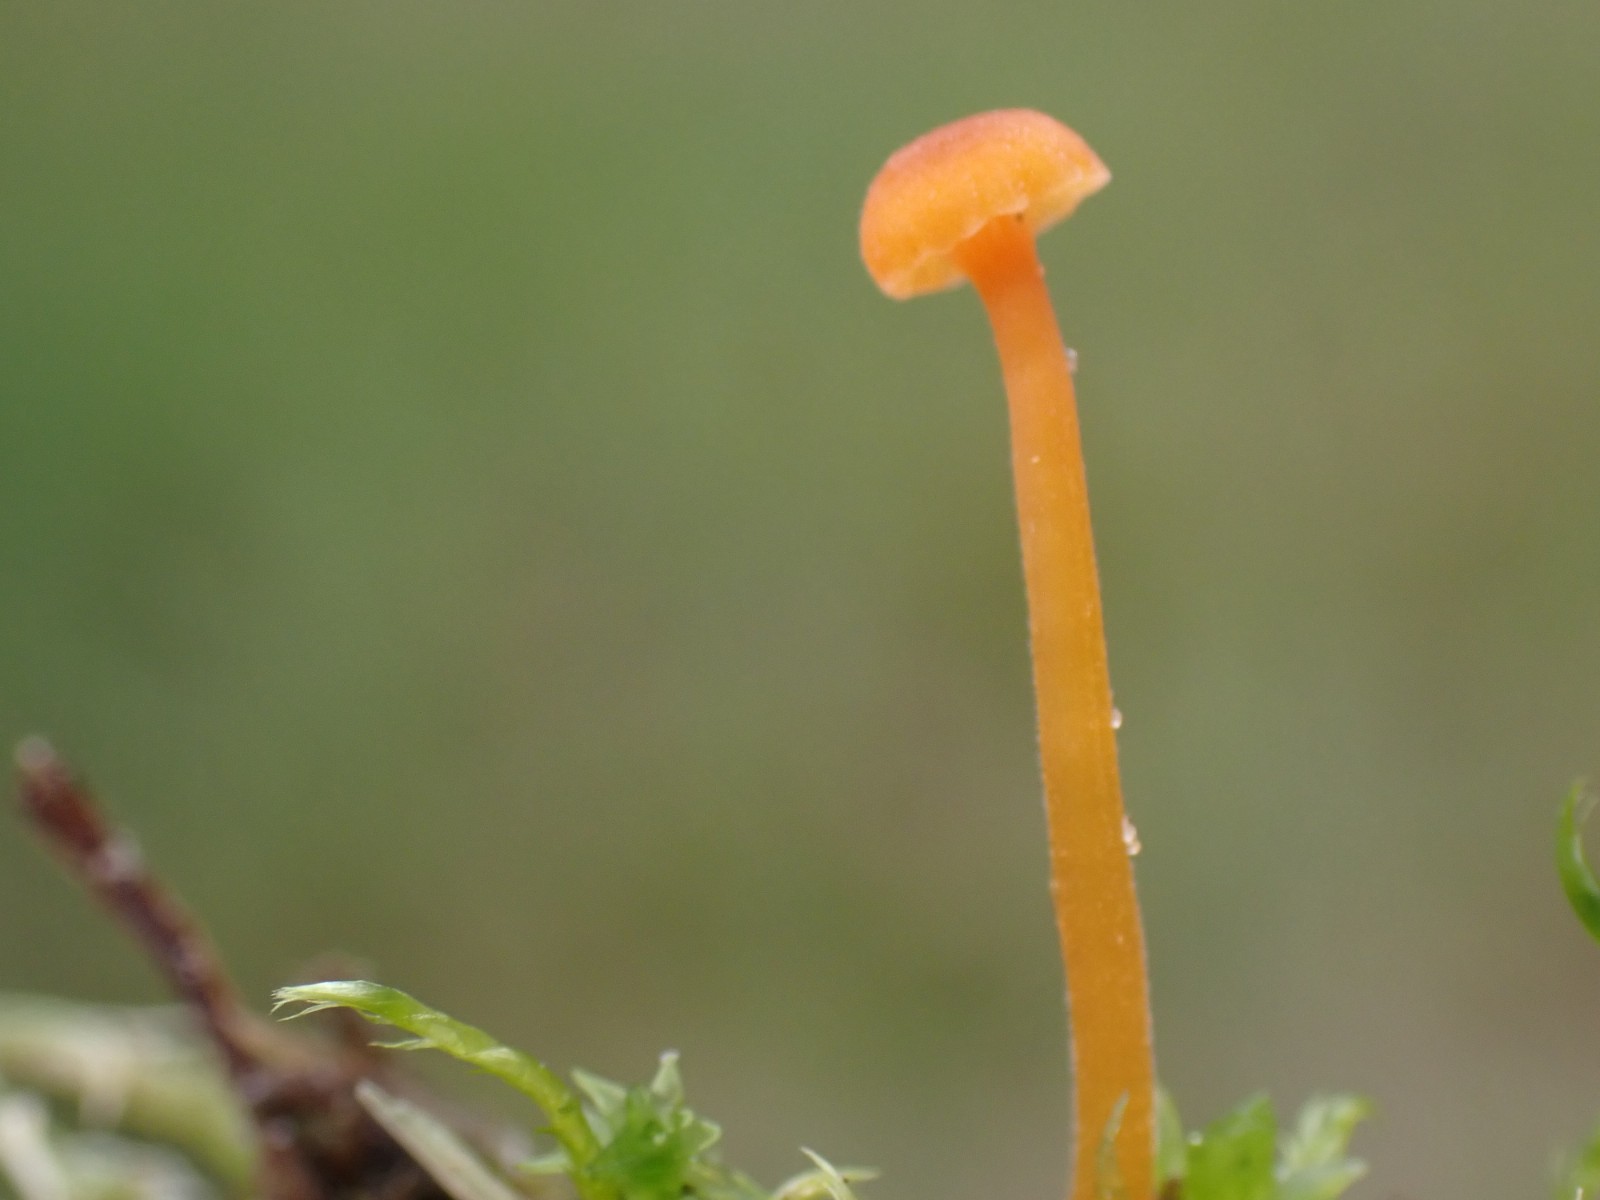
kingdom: Fungi
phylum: Basidiomycota
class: Agaricomycetes
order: Hymenochaetales
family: Rickenellaceae
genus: Rickenella
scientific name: Rickenella fibula
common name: orange mosnavlehat
